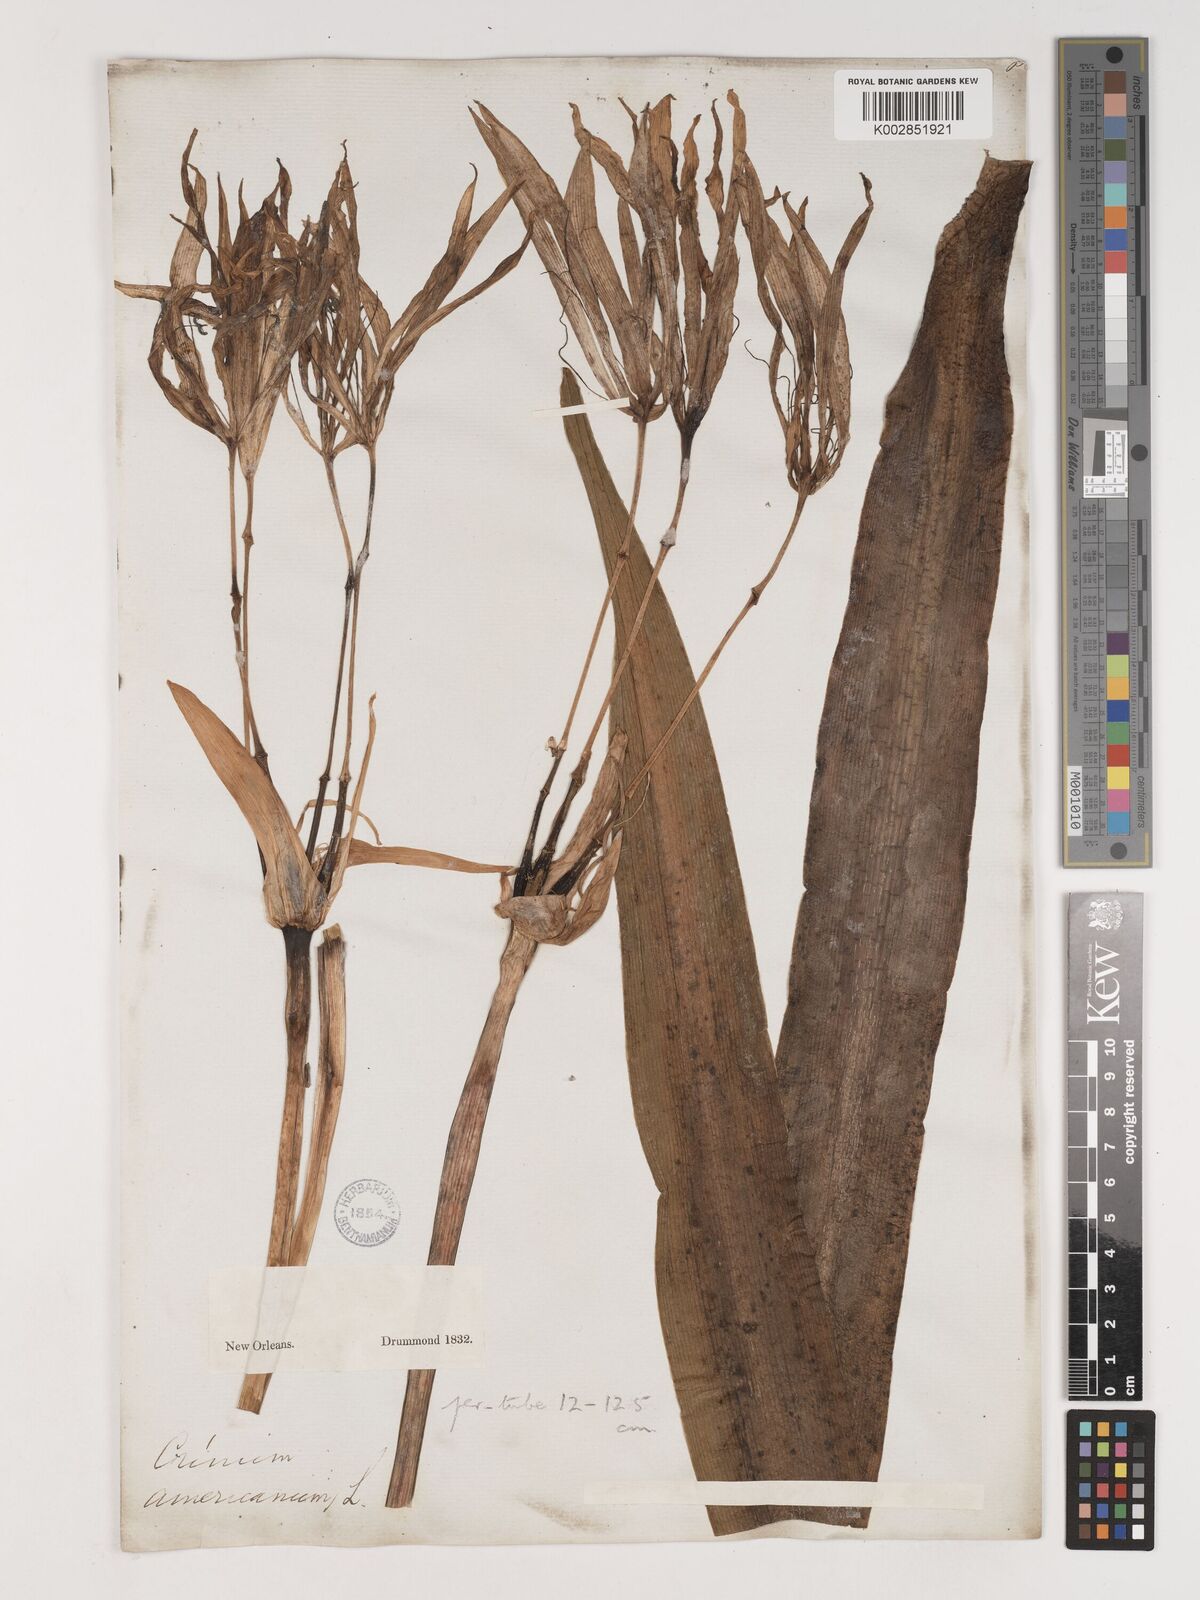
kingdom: Plantae
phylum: Tracheophyta
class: Liliopsida
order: Asparagales
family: Amaryllidaceae
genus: Crinum
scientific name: Crinum americanum
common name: Florida swamp-lily
